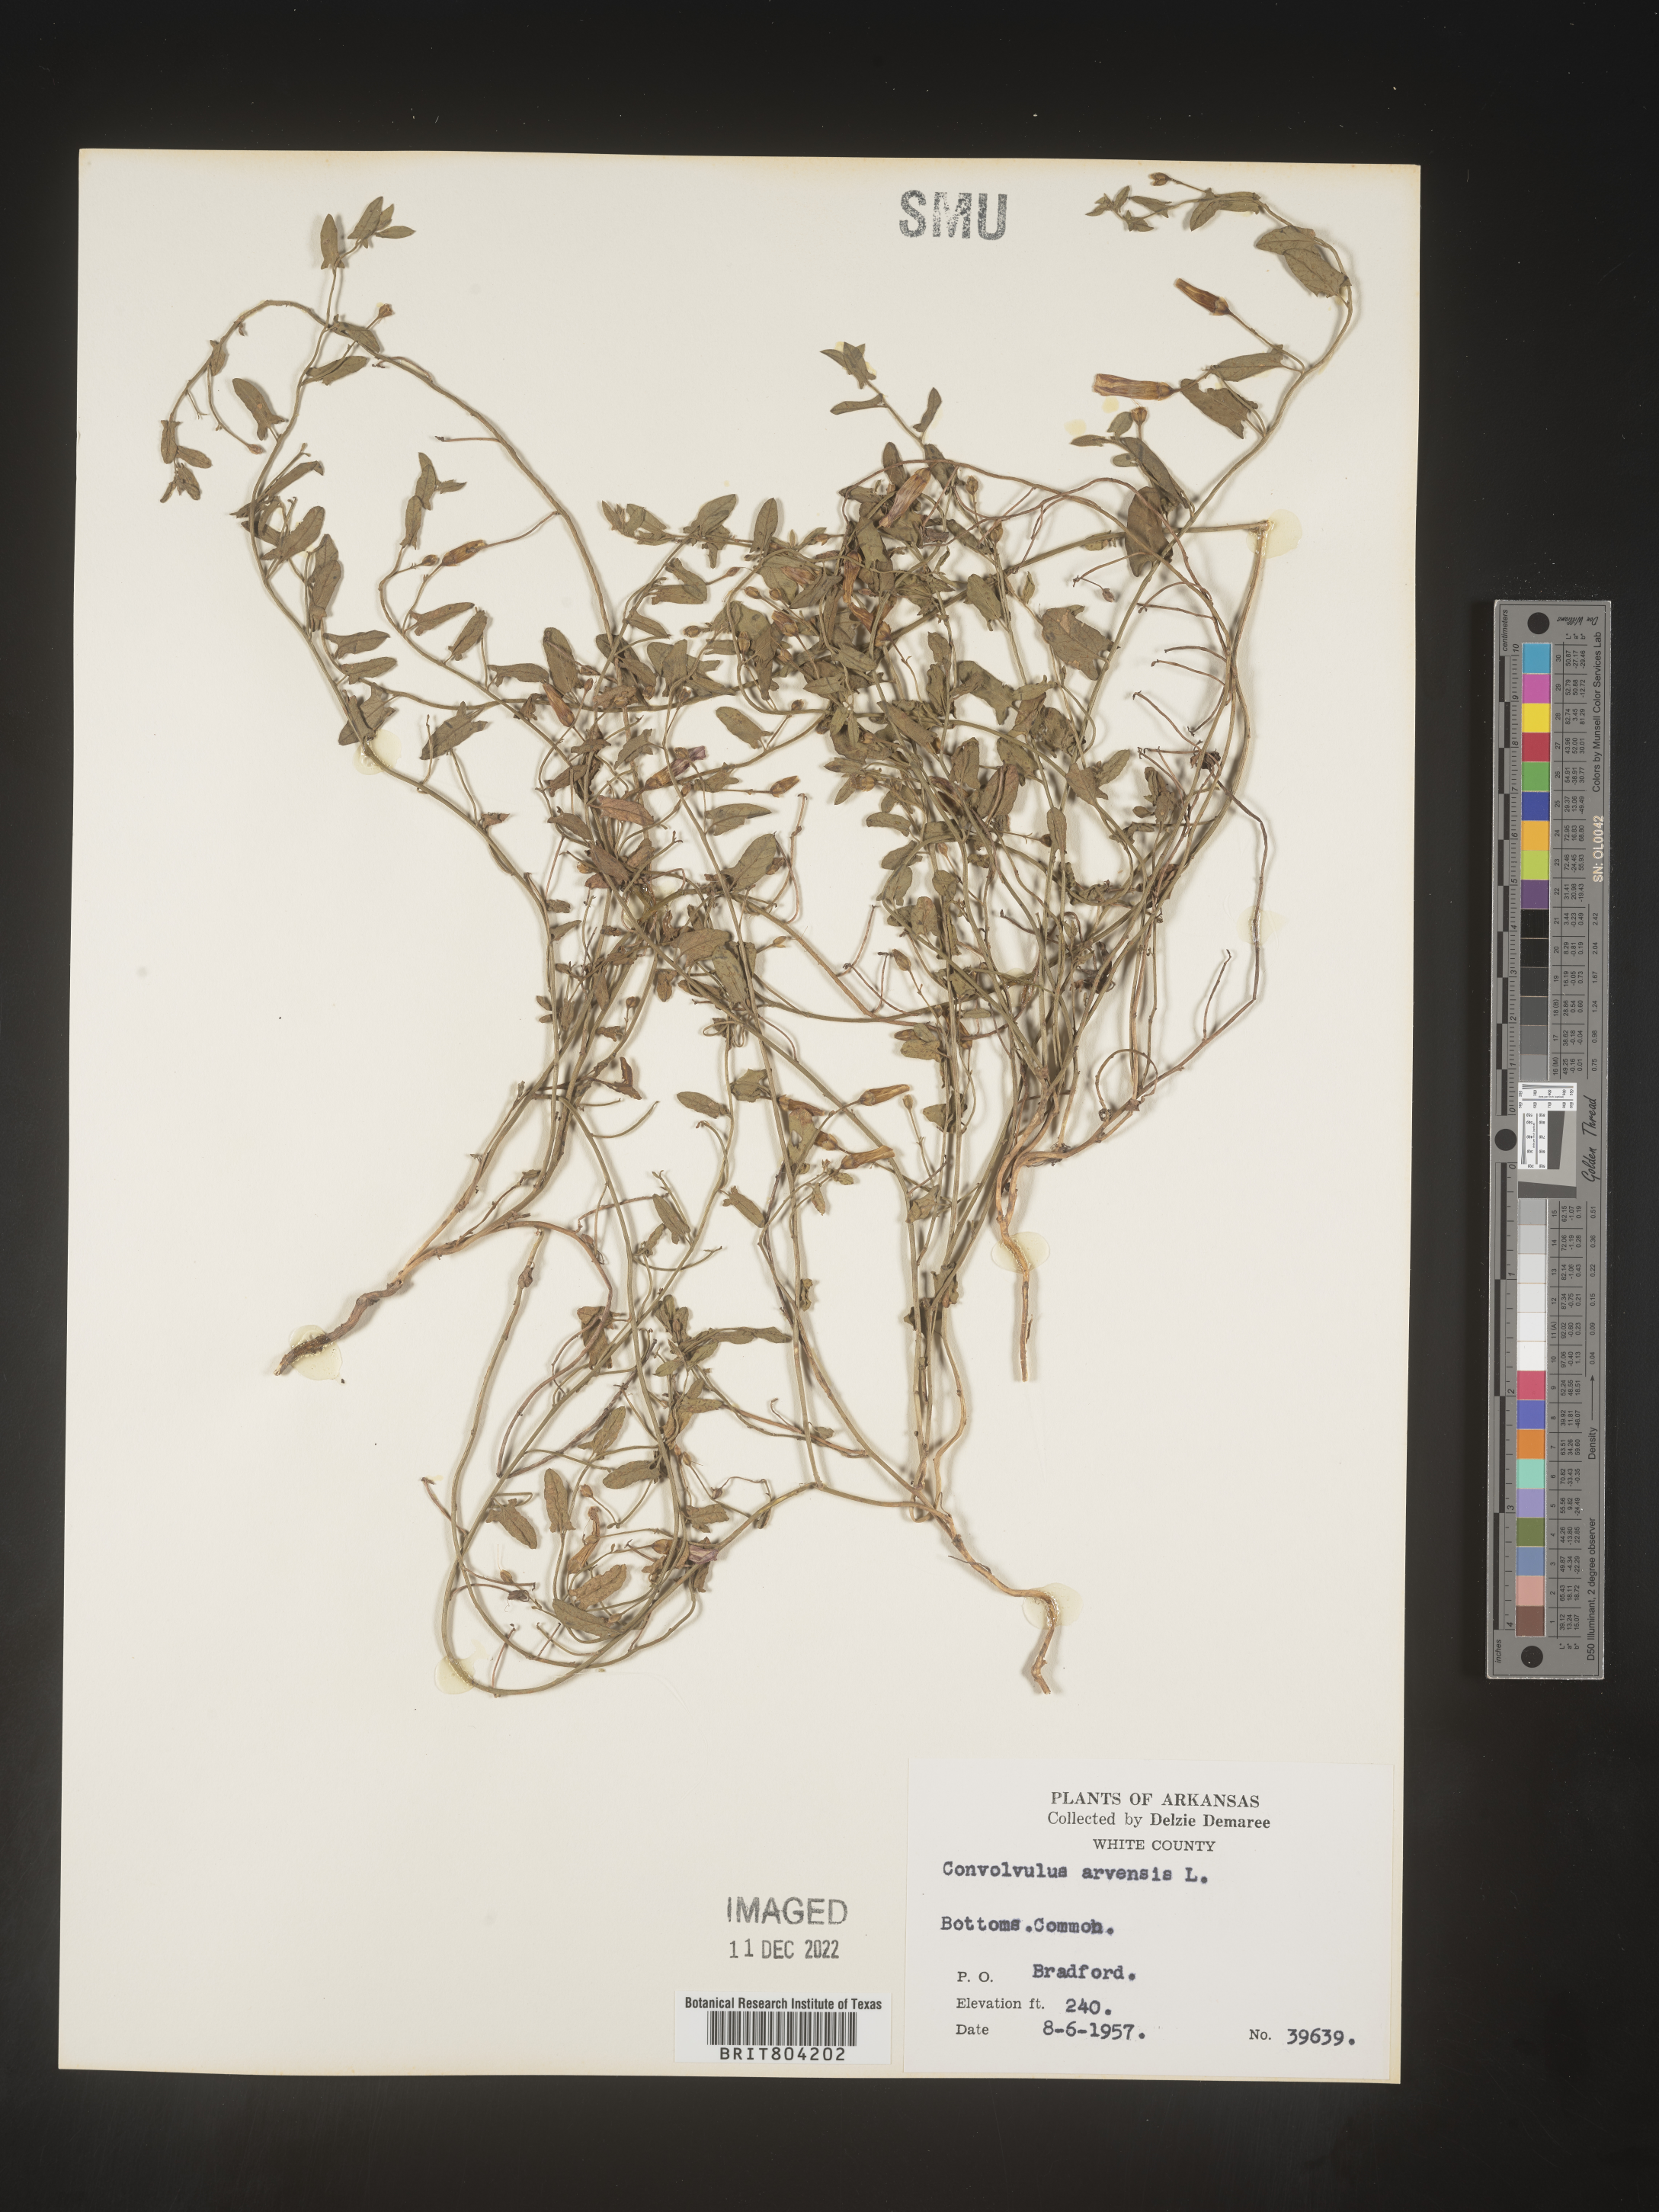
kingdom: Plantae
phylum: Tracheophyta
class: Magnoliopsida
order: Solanales
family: Convolvulaceae
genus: Convolvulus
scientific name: Convolvulus arvensis
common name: Field bindweed
